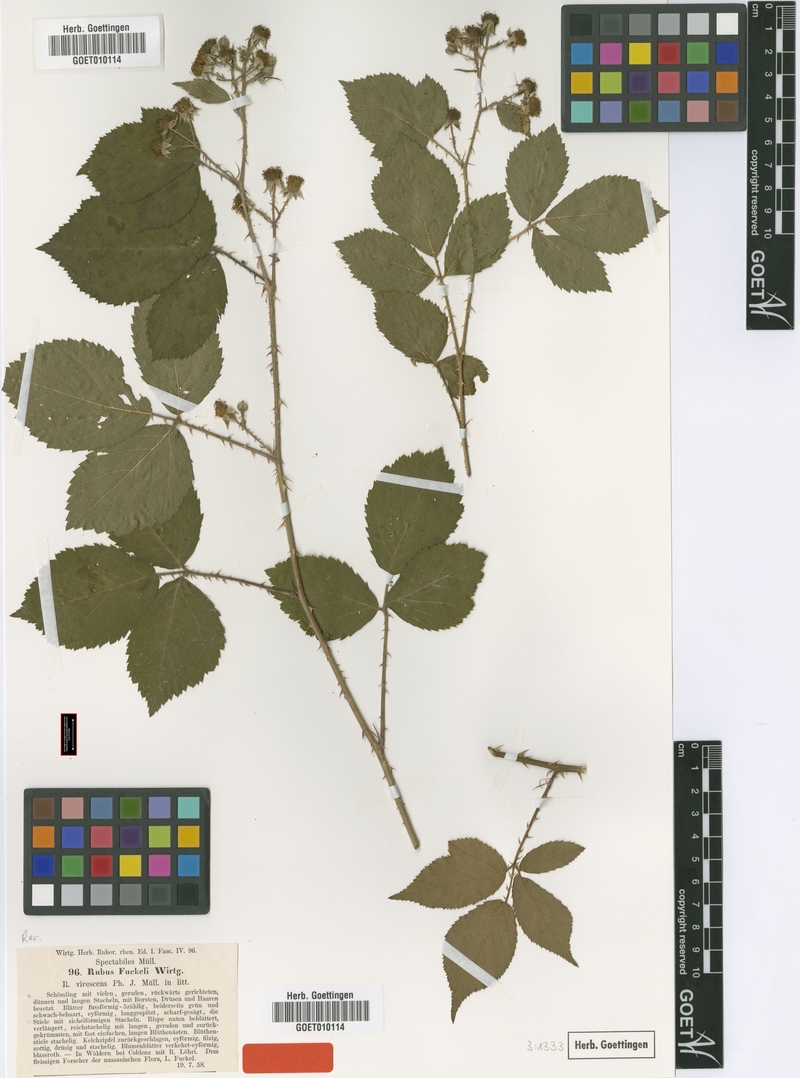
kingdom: Plantae
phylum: Tracheophyta
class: Magnoliopsida
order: Rosales
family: Rosaceae
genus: Rubus
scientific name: Rubus fuckelii
